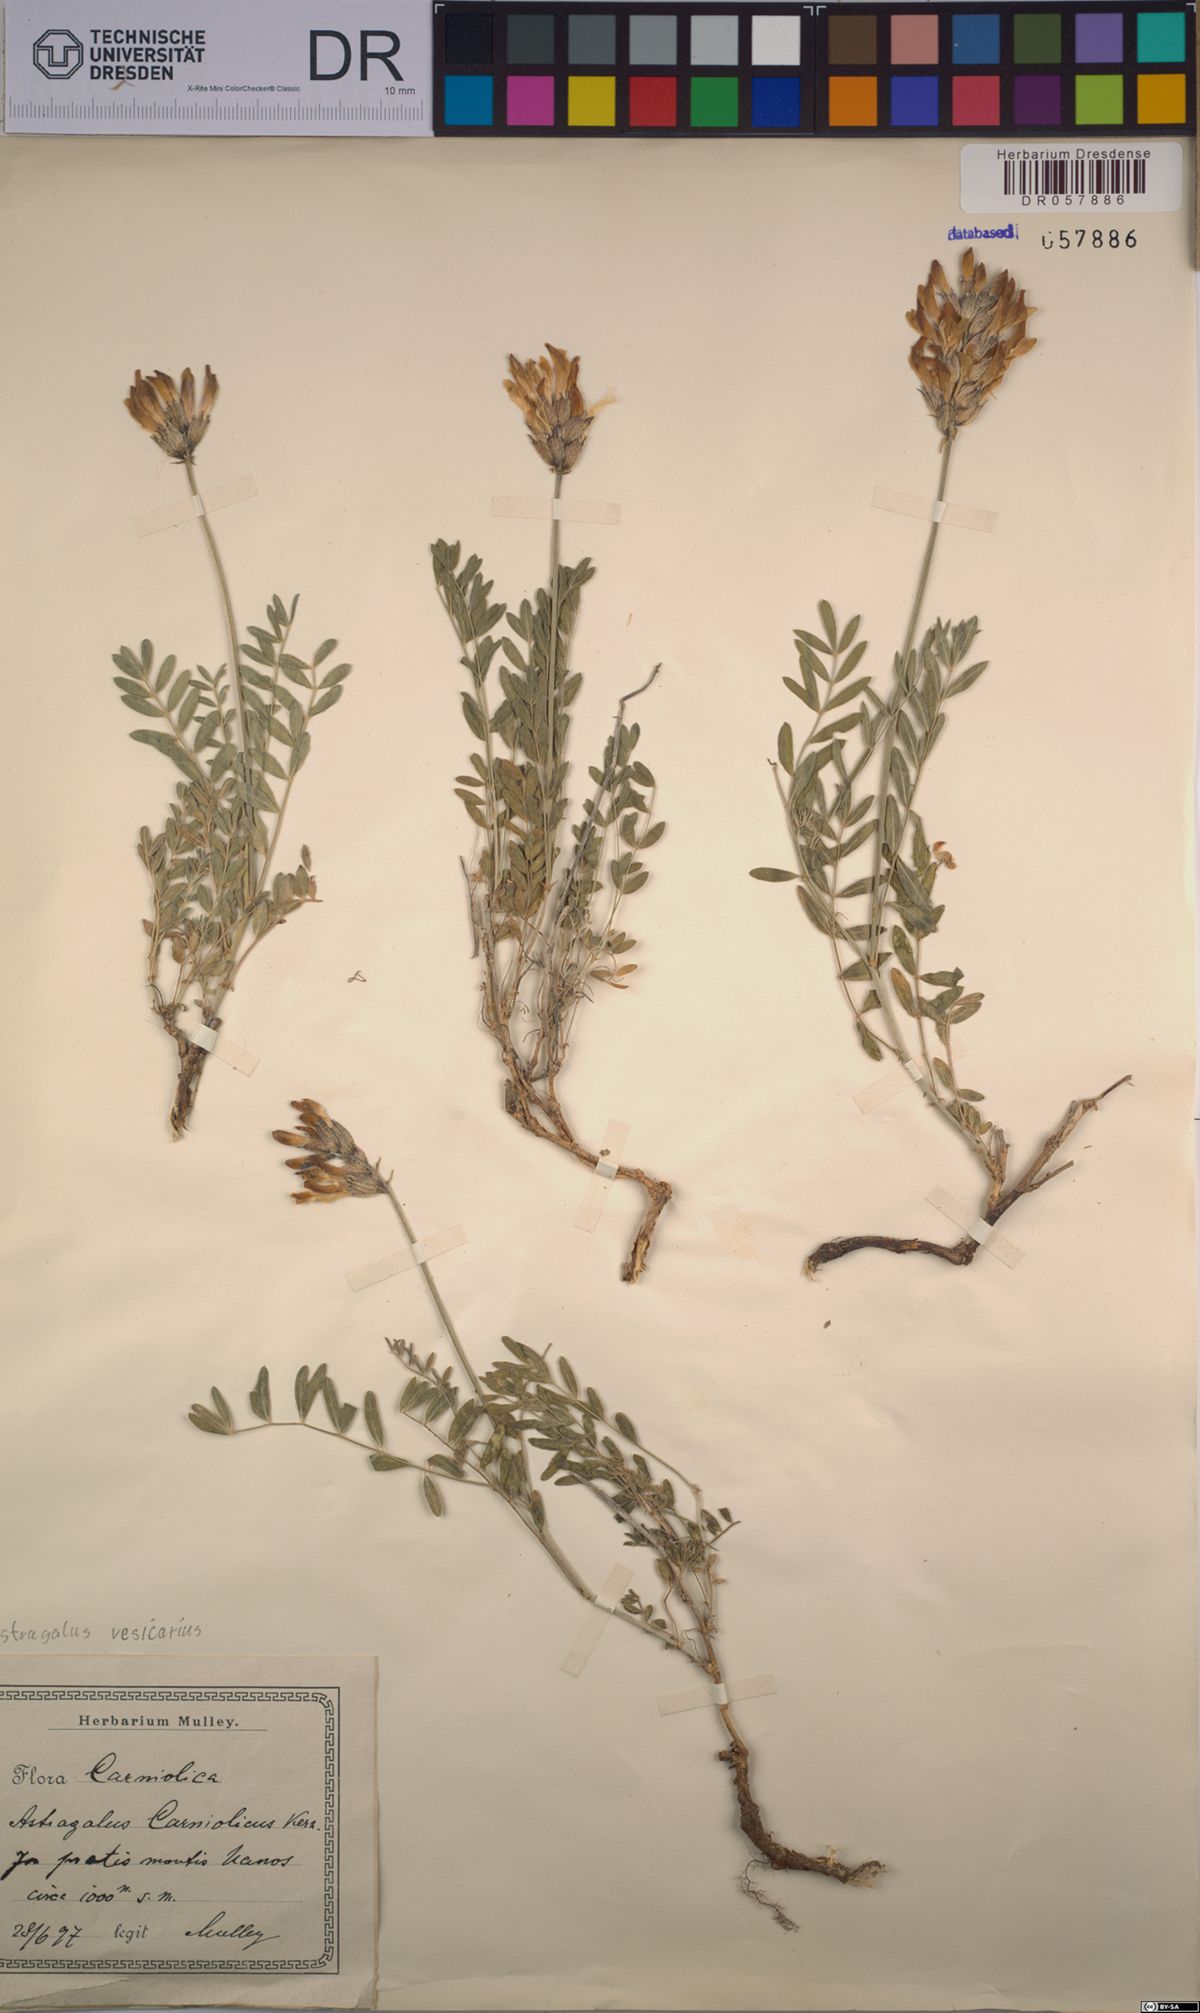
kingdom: Plantae
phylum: Tracheophyta
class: Magnoliopsida
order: Fabales
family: Fabaceae
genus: Astragalus
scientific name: Astragalus vesicarius
